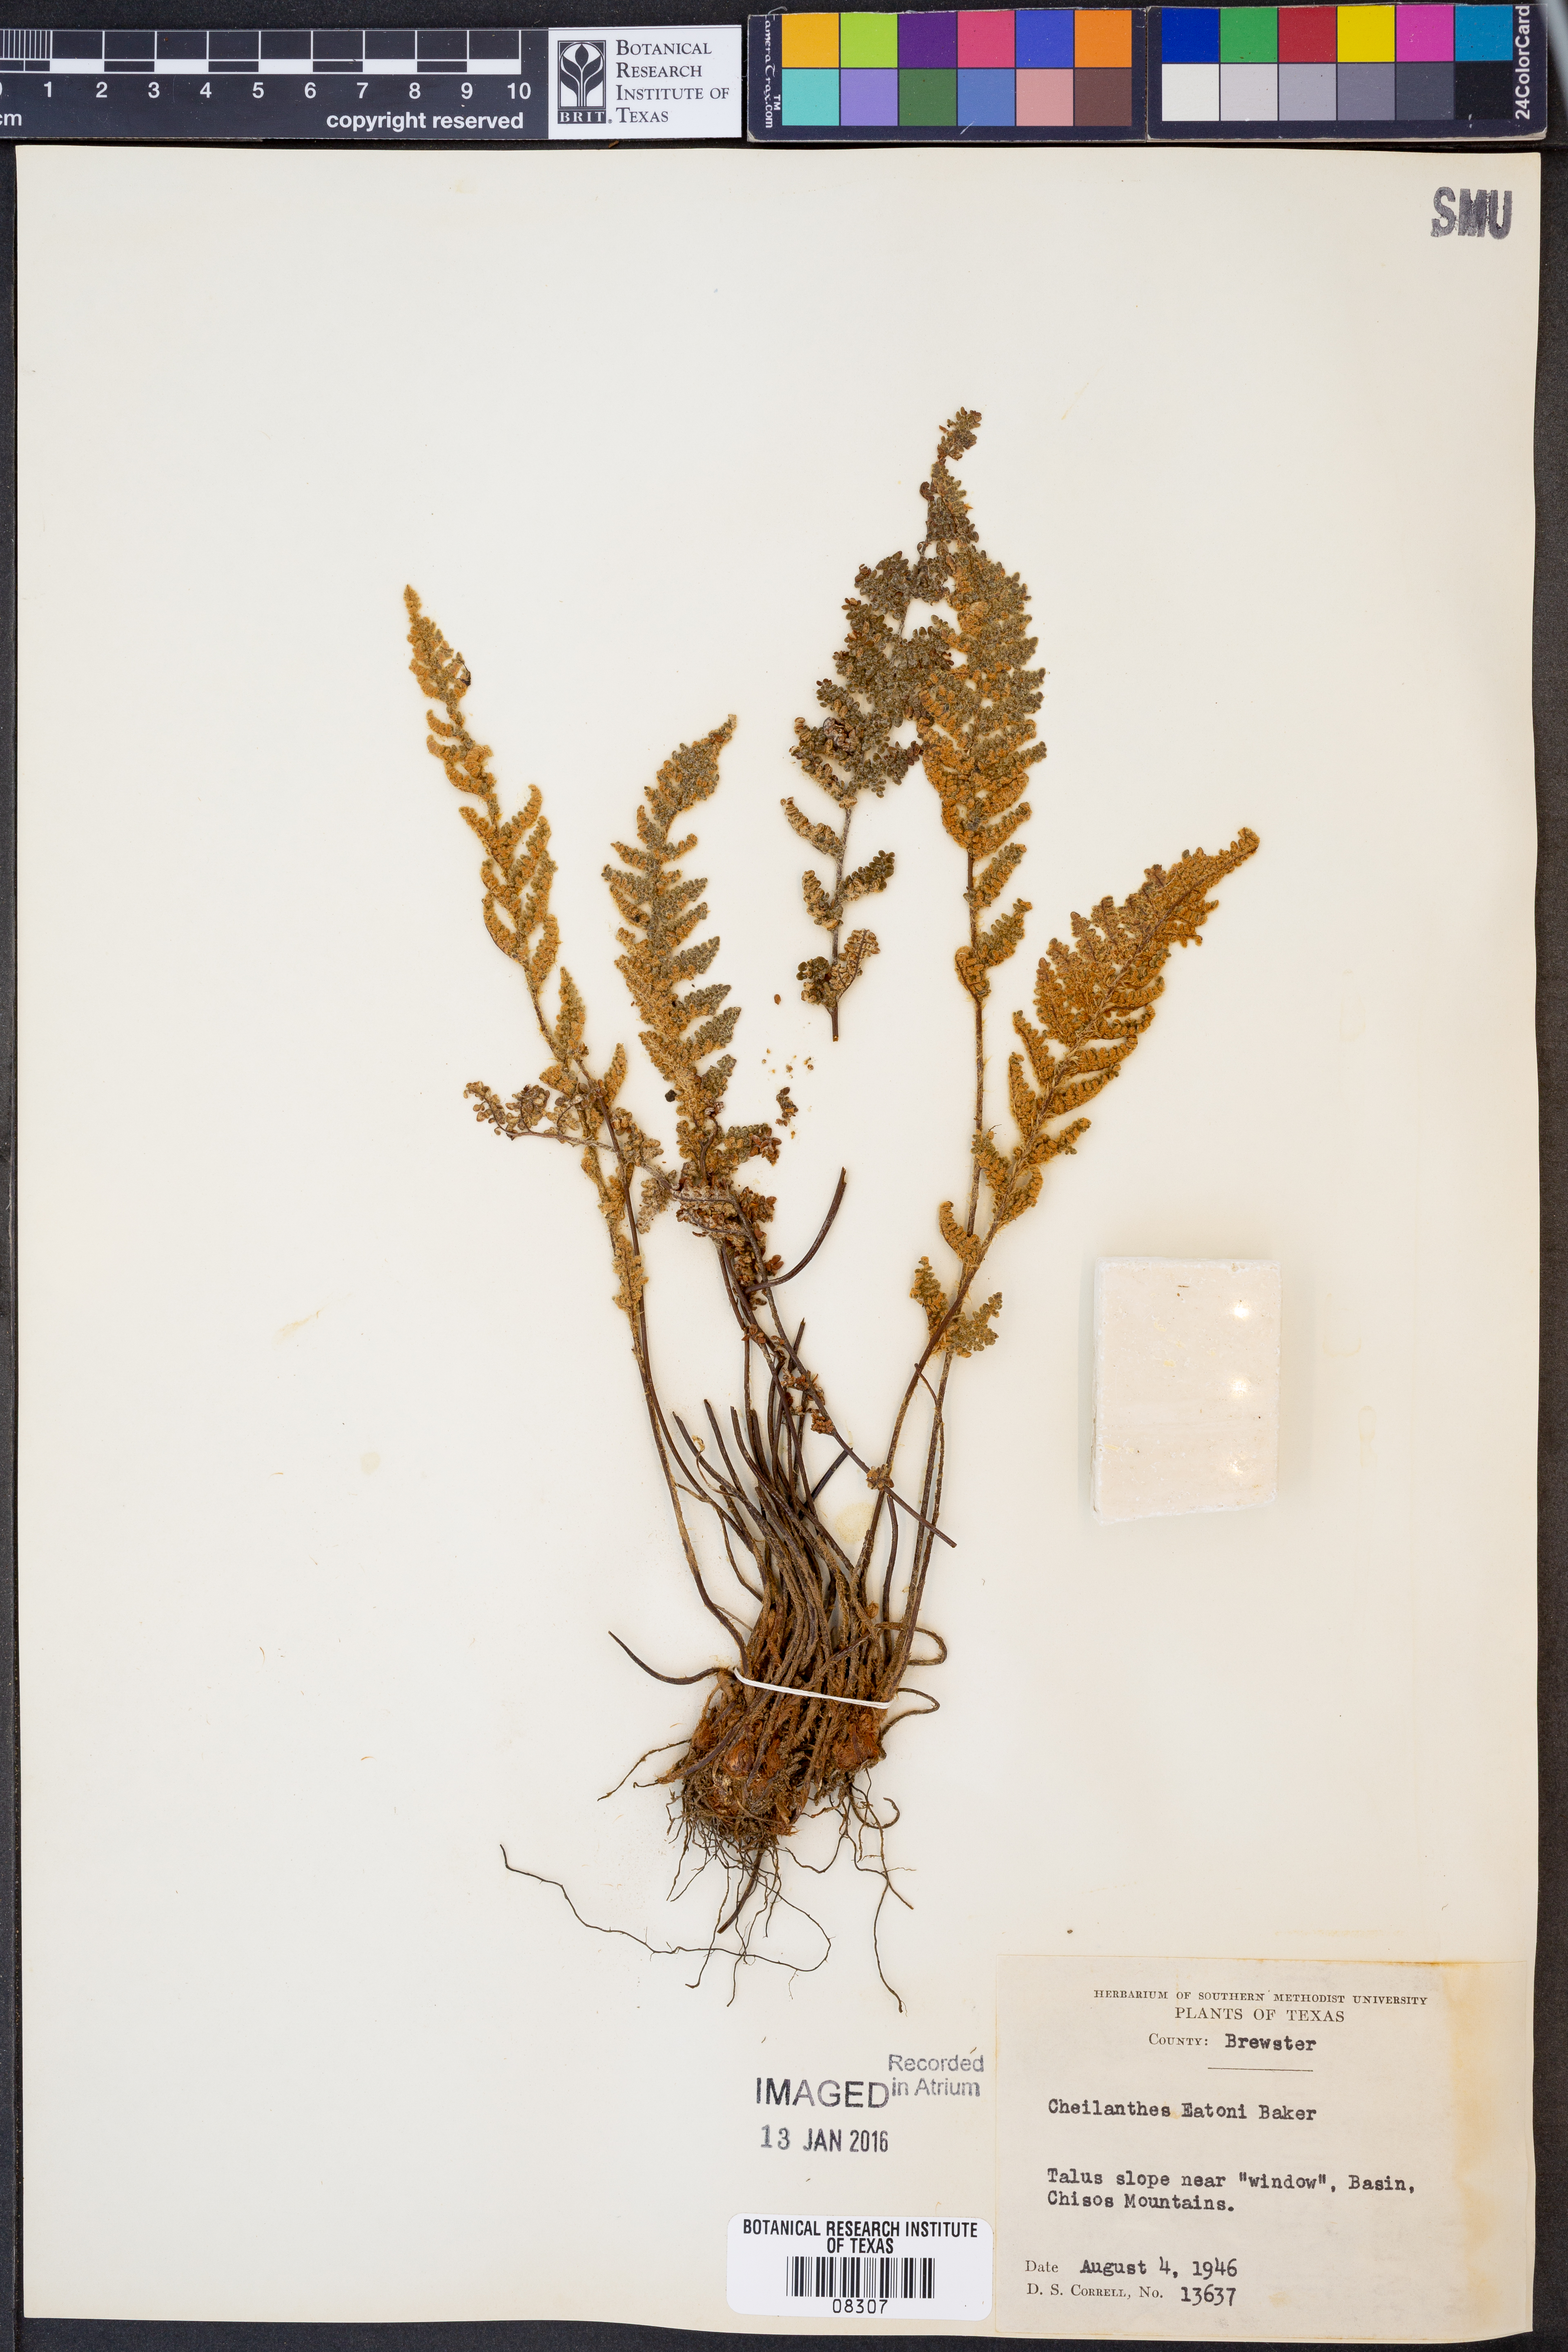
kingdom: Plantae
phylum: Tracheophyta
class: Polypodiopsida
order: Polypodiales
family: Pteridaceae
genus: Myriopteris
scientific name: Myriopteris rufa
